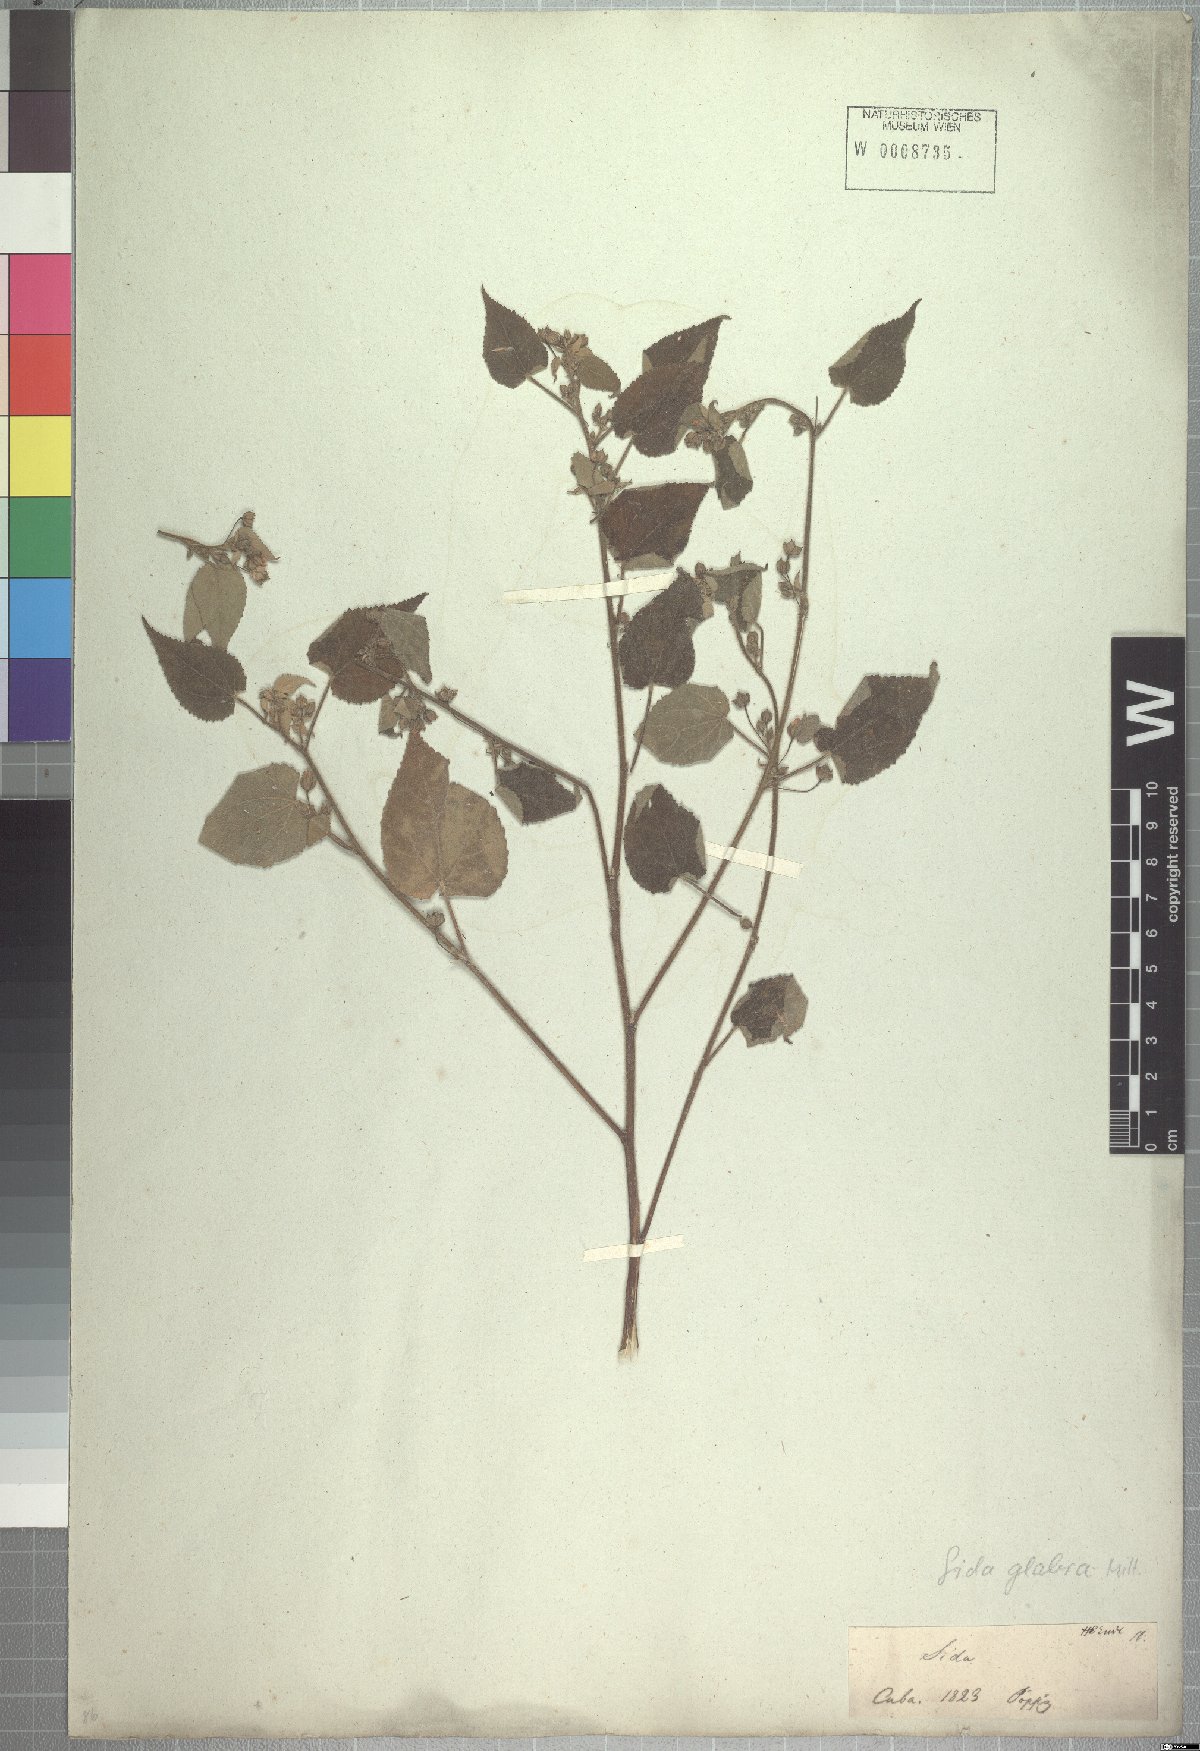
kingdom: Plantae
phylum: Tracheophyta
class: Magnoliopsida
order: Malvales
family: Malvaceae
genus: Sida
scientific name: Sida glabra
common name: Smooth fanpetals
